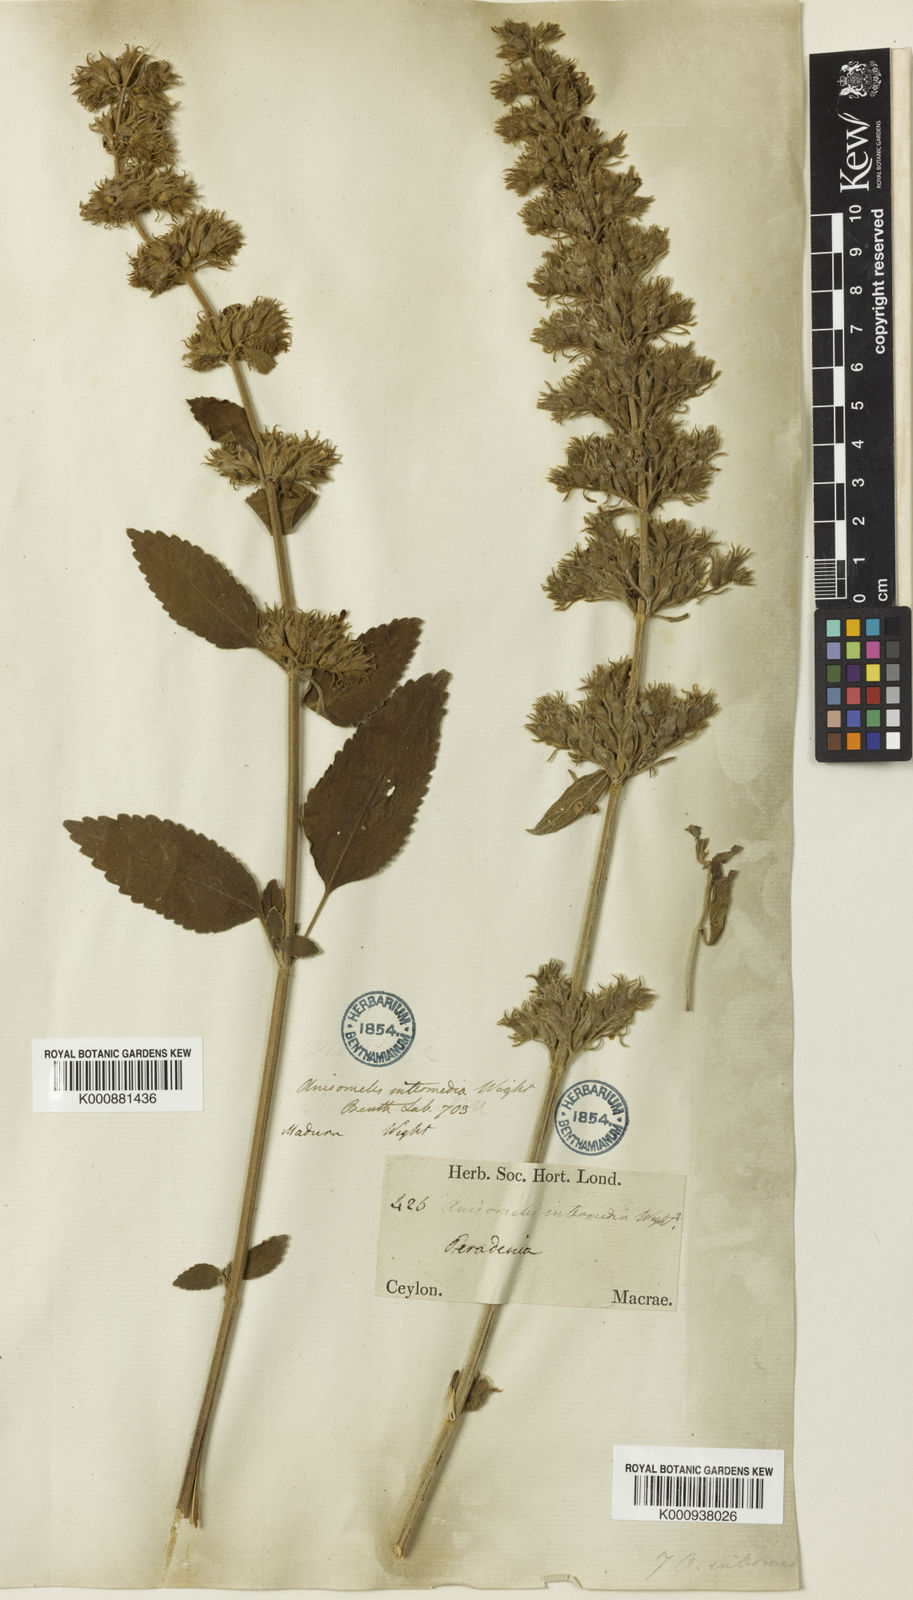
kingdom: Plantae
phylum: Tracheophyta
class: Magnoliopsida
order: Lamiales
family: Lamiaceae
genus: Anisomeles
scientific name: Anisomeles
